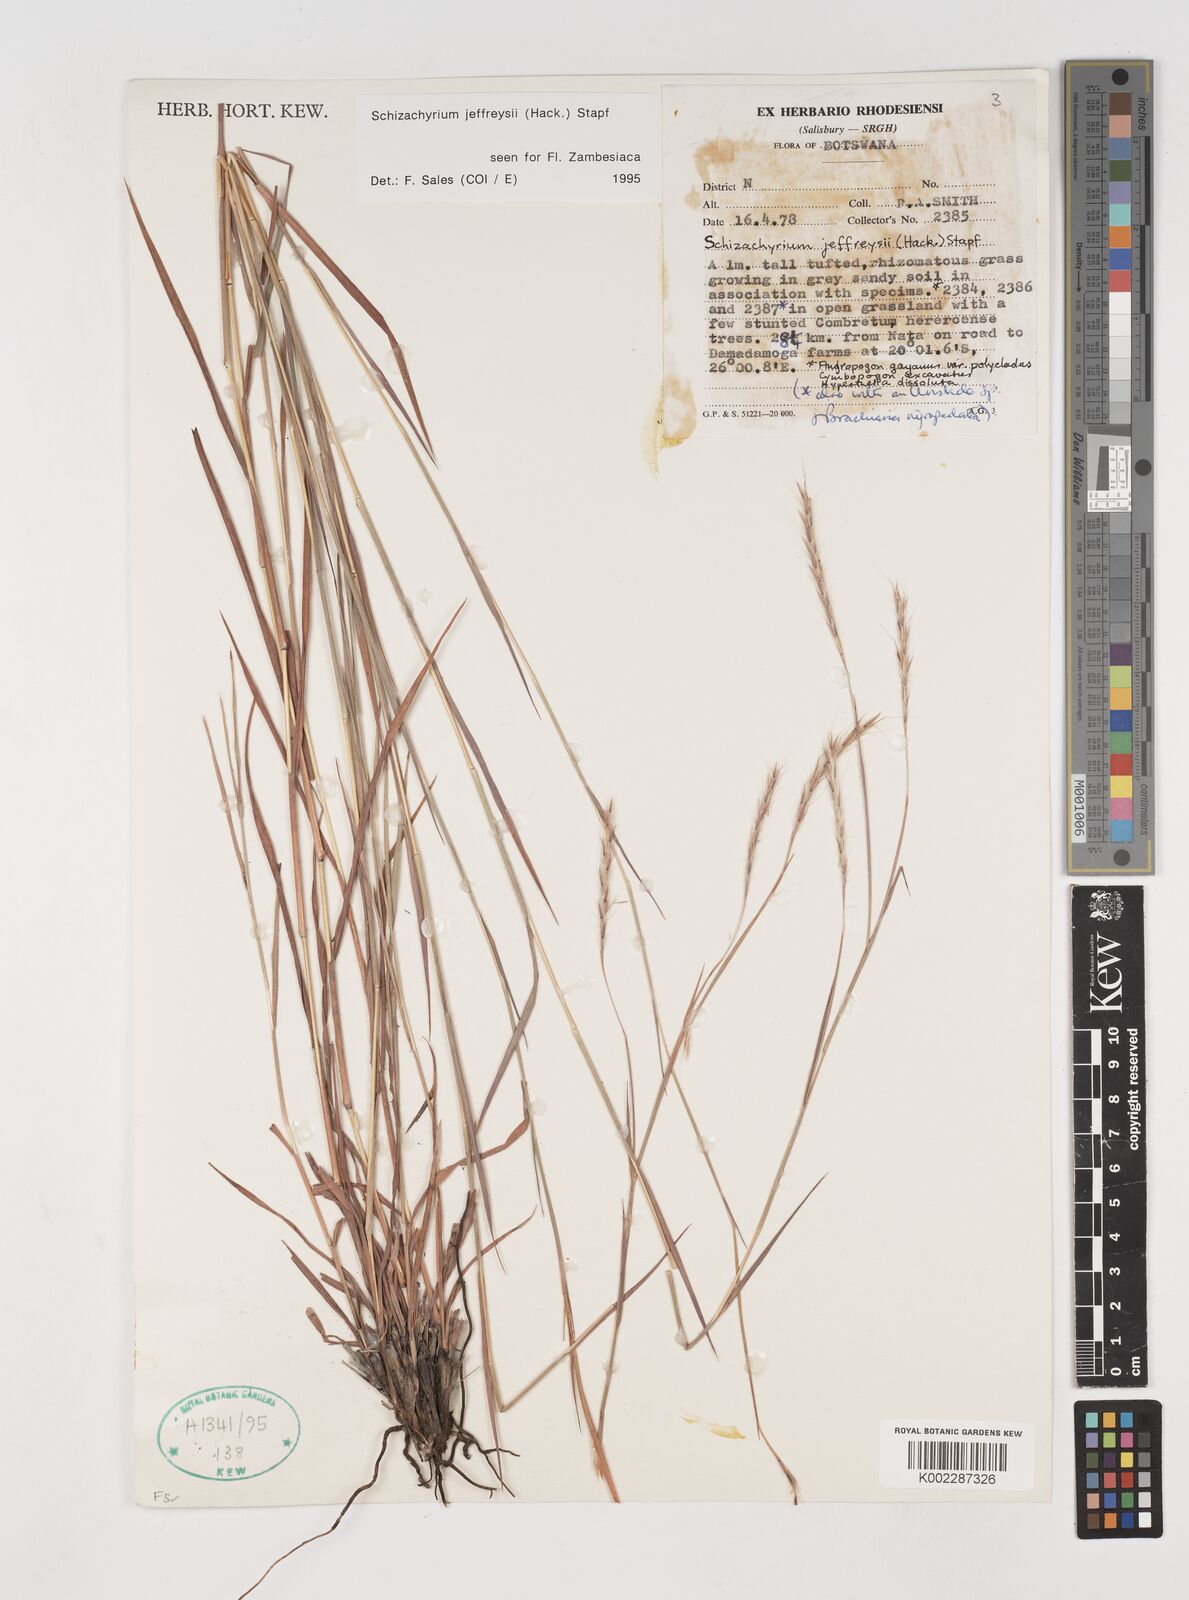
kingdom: Plantae
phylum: Tracheophyta
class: Liliopsida
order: Poales
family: Poaceae
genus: Schizachyrium
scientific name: Schizachyrium jeffreysii
